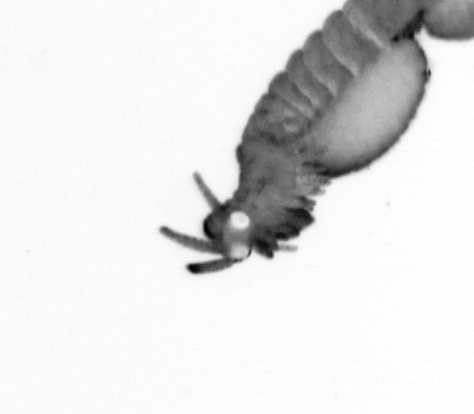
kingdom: Animalia
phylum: Annelida
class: Polychaeta
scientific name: Polychaeta
